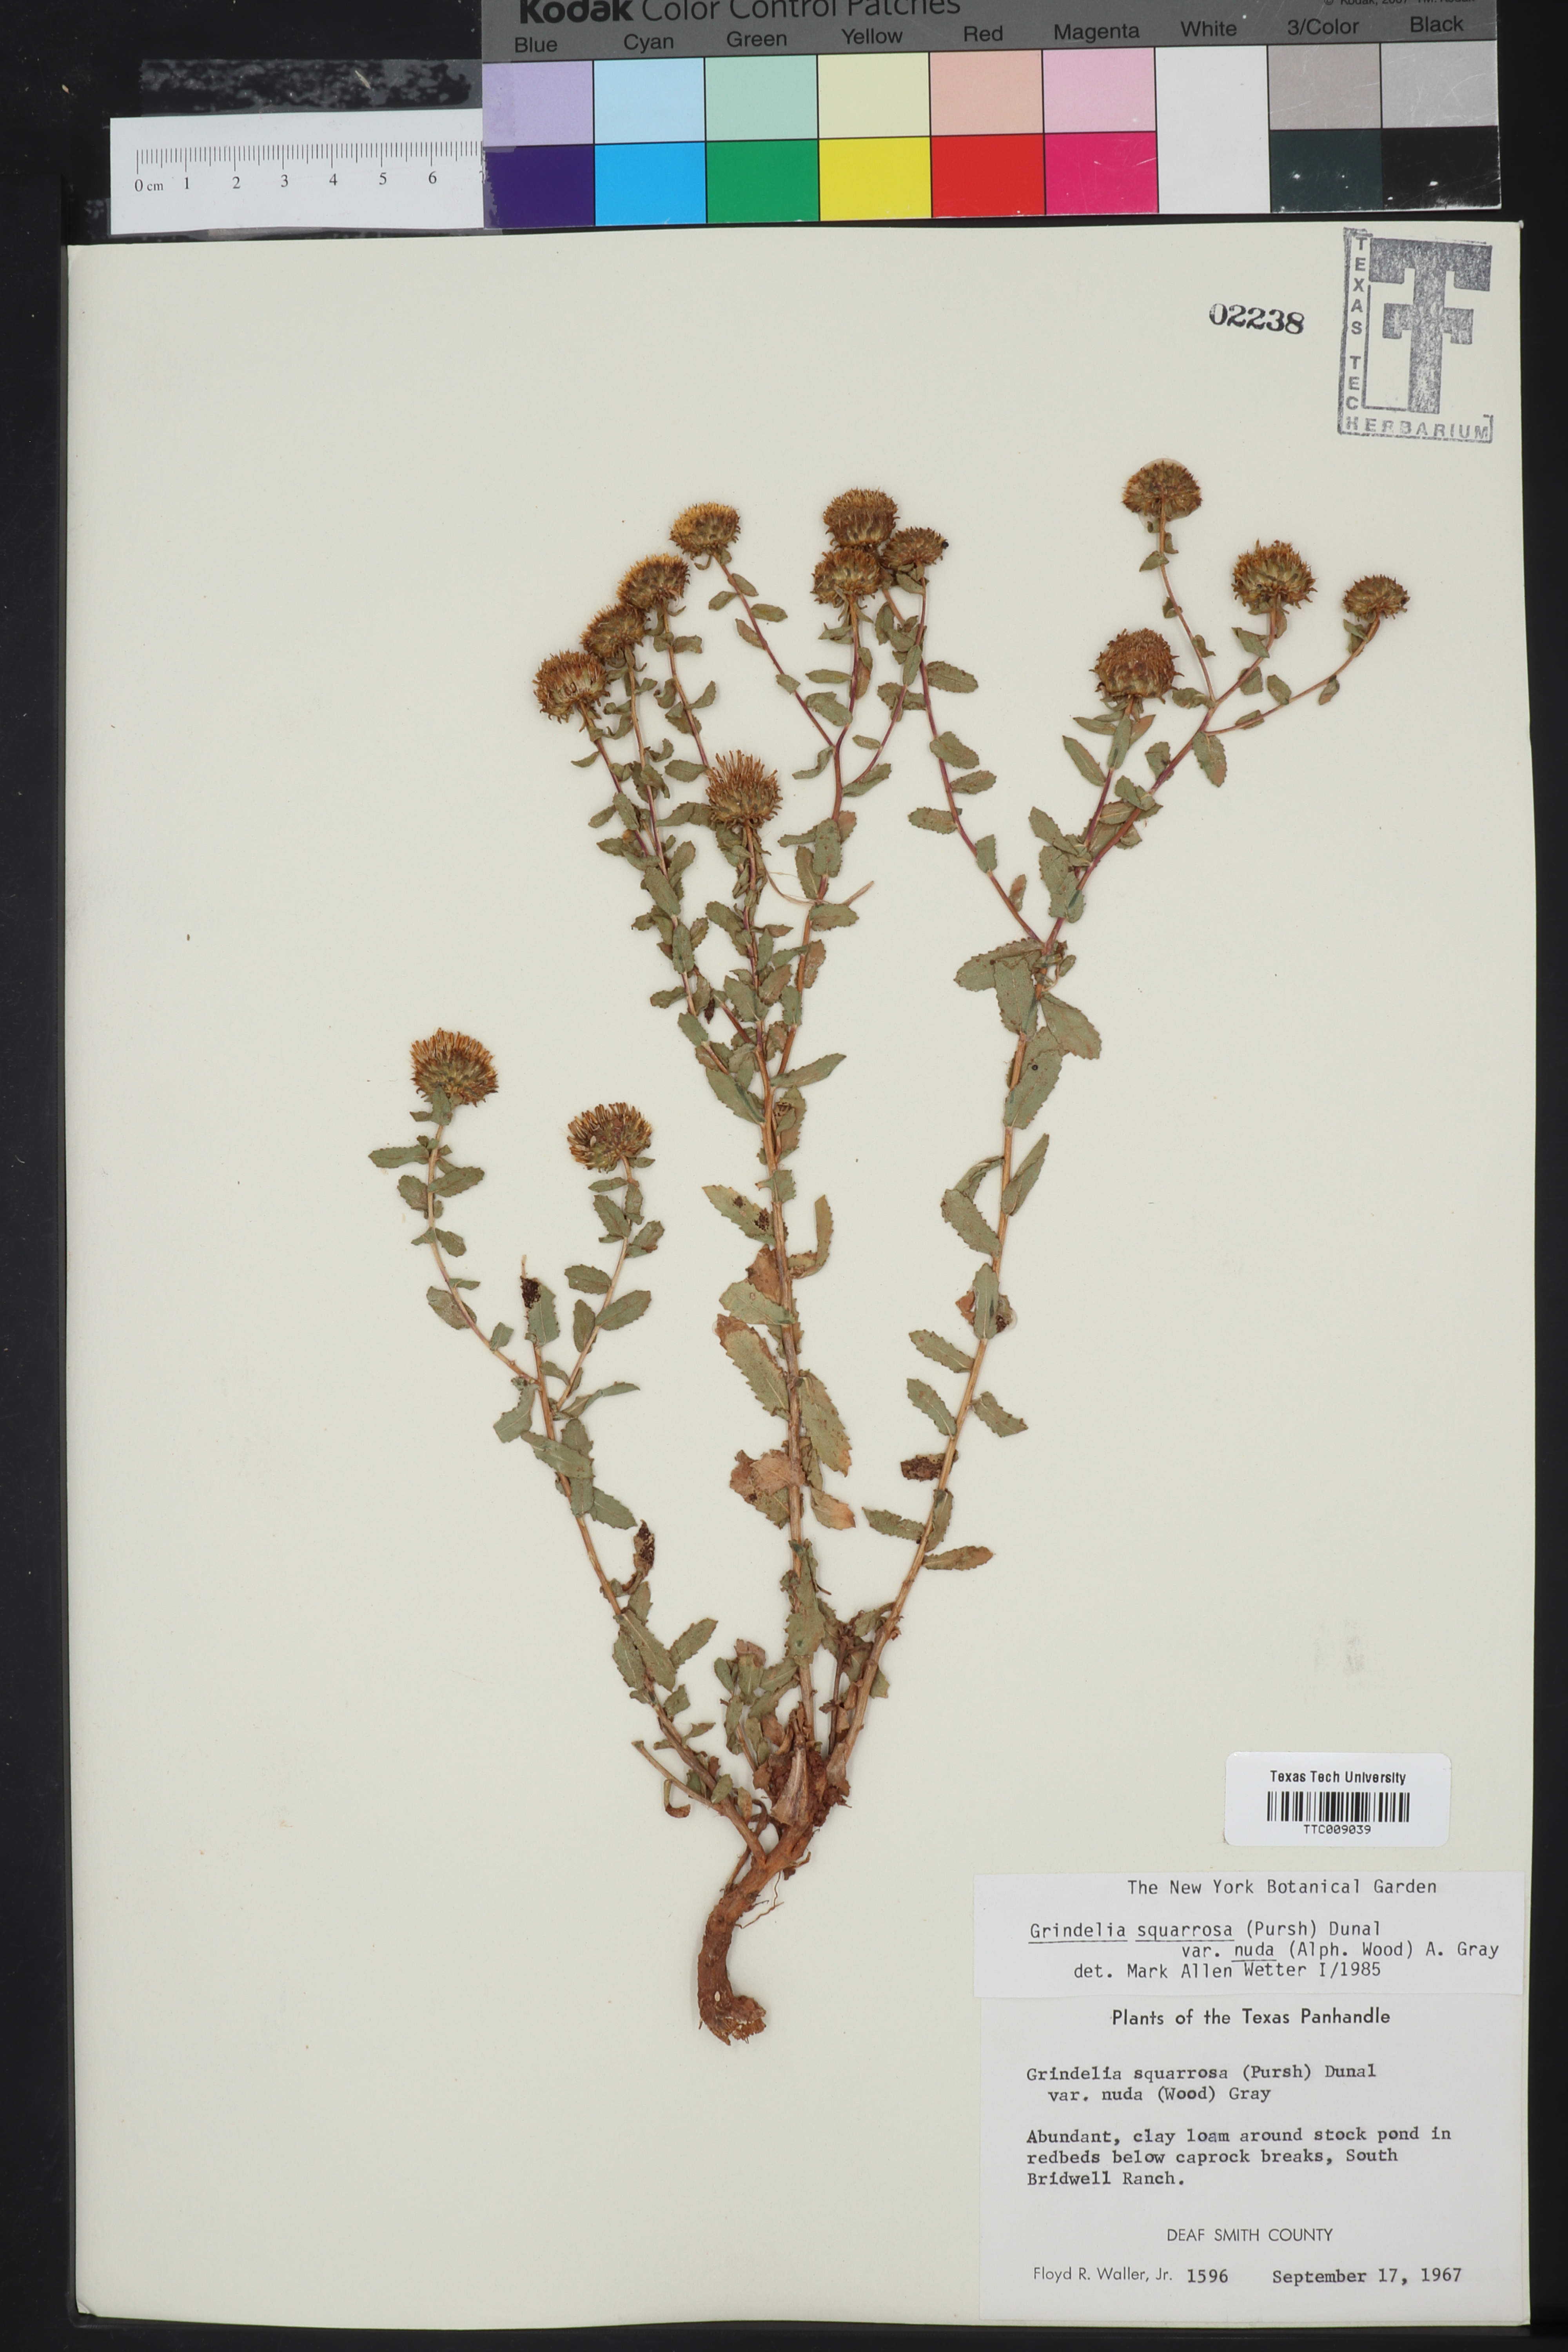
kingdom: Plantae
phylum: Tracheophyta
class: Magnoliopsida
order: Asterales
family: Asteraceae
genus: Grindelia
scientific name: Grindelia nuda
